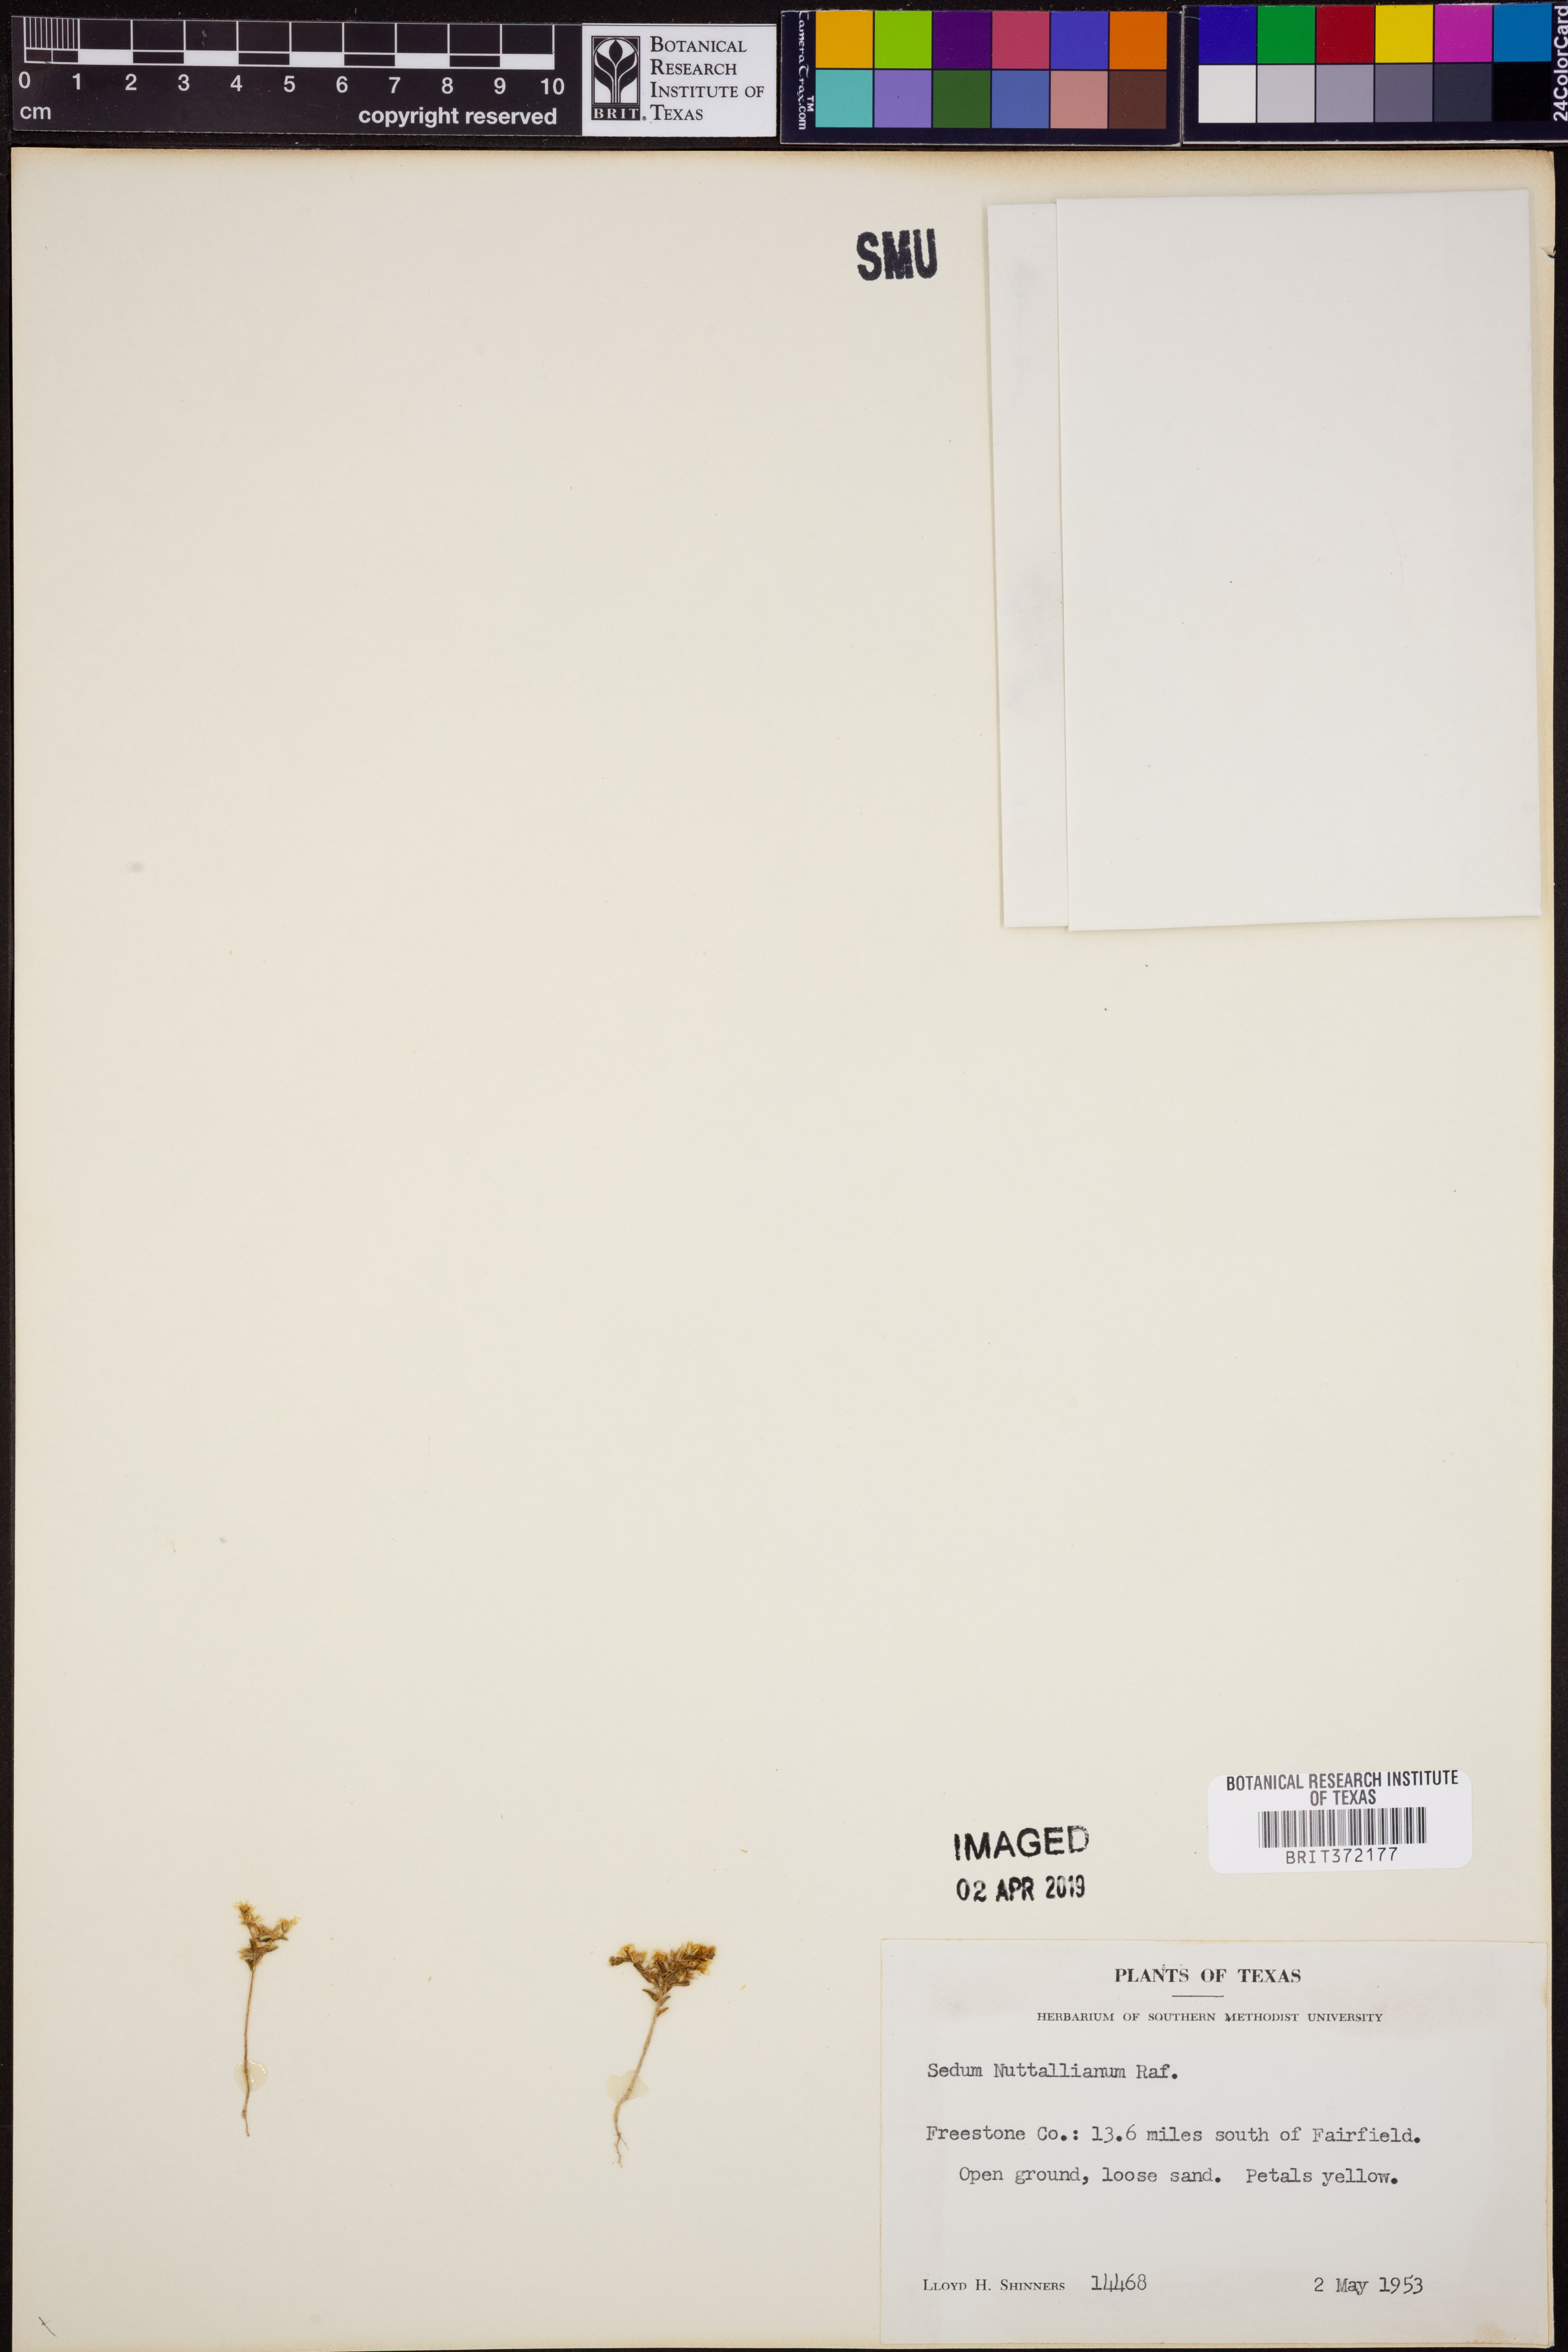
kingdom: Plantae
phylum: Tracheophyta
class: Magnoliopsida
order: Saxifragales
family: Crassulaceae
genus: Sedum
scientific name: Sedum nuttallii
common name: Yellow stonecrop
